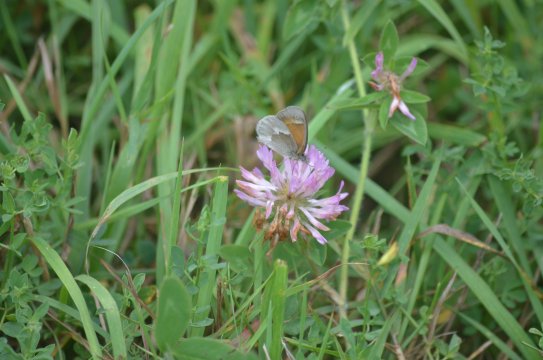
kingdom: Animalia
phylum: Arthropoda
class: Insecta
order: Lepidoptera
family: Nymphalidae
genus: Coenonympha
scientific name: Coenonympha tullia
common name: Large Heath
